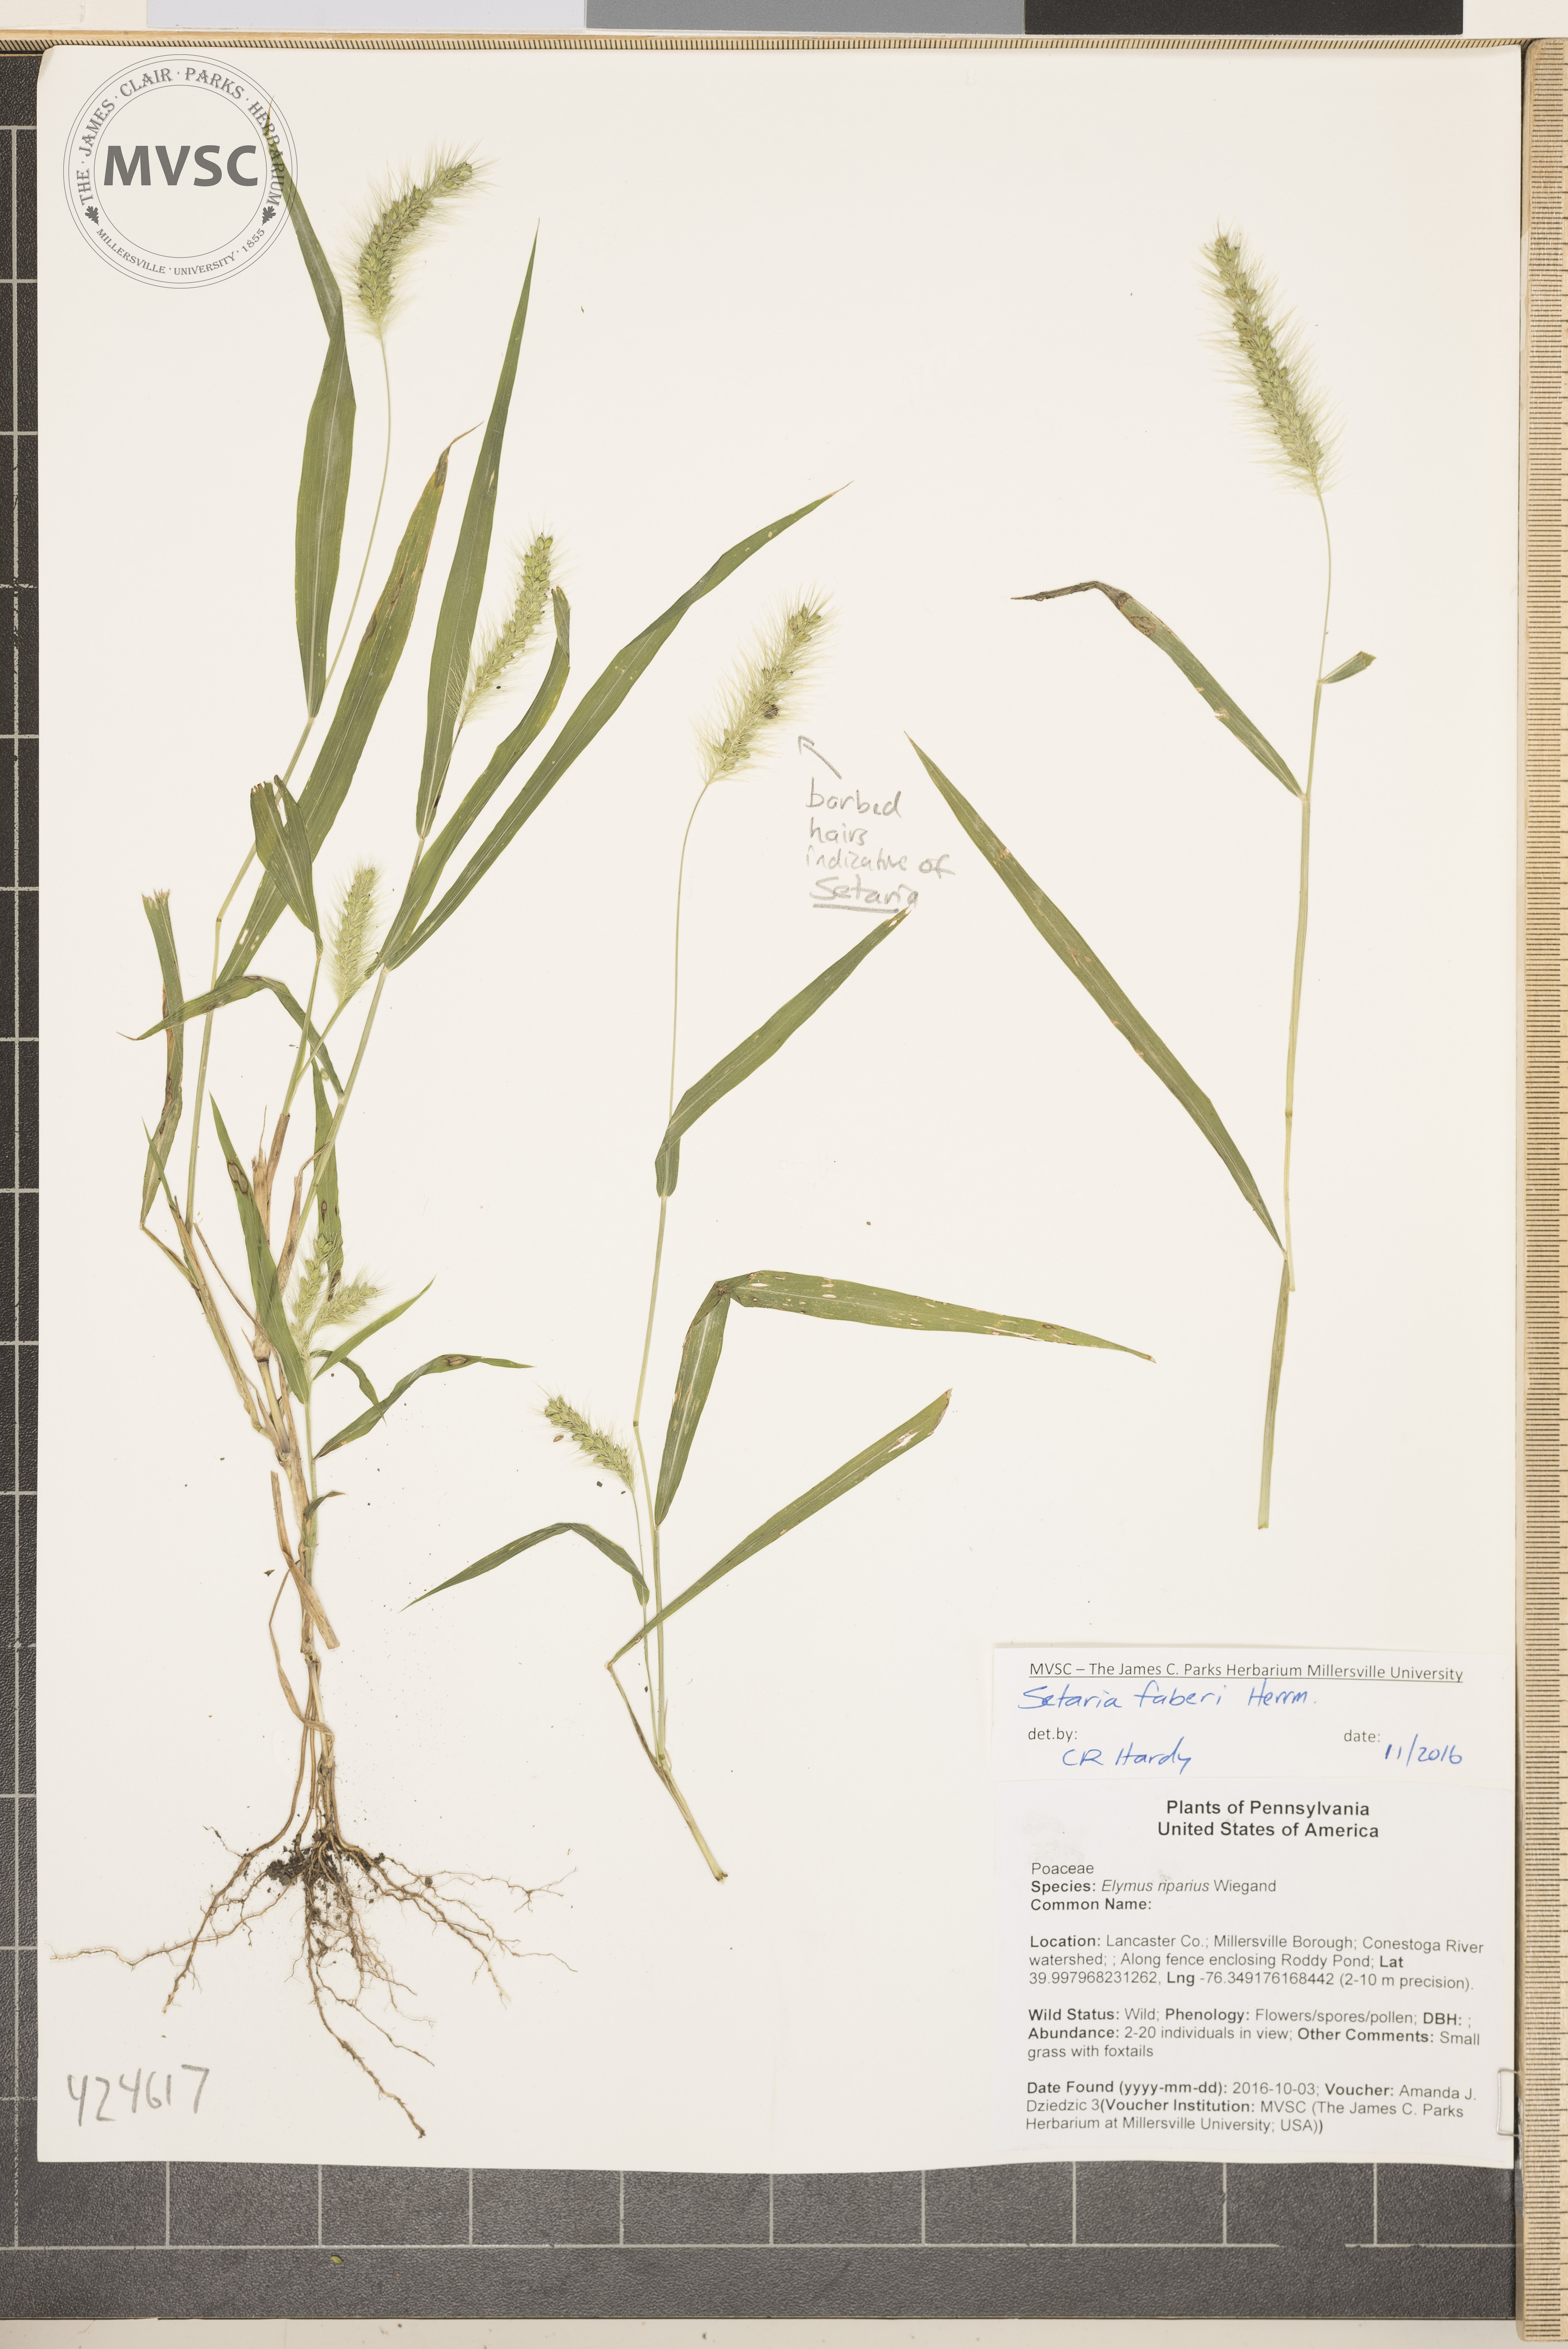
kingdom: Plantae
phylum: Tracheophyta
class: Liliopsida
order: Poales
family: Poaceae
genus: Setaria
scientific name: Setaria faberi
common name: Giant Foxtail
